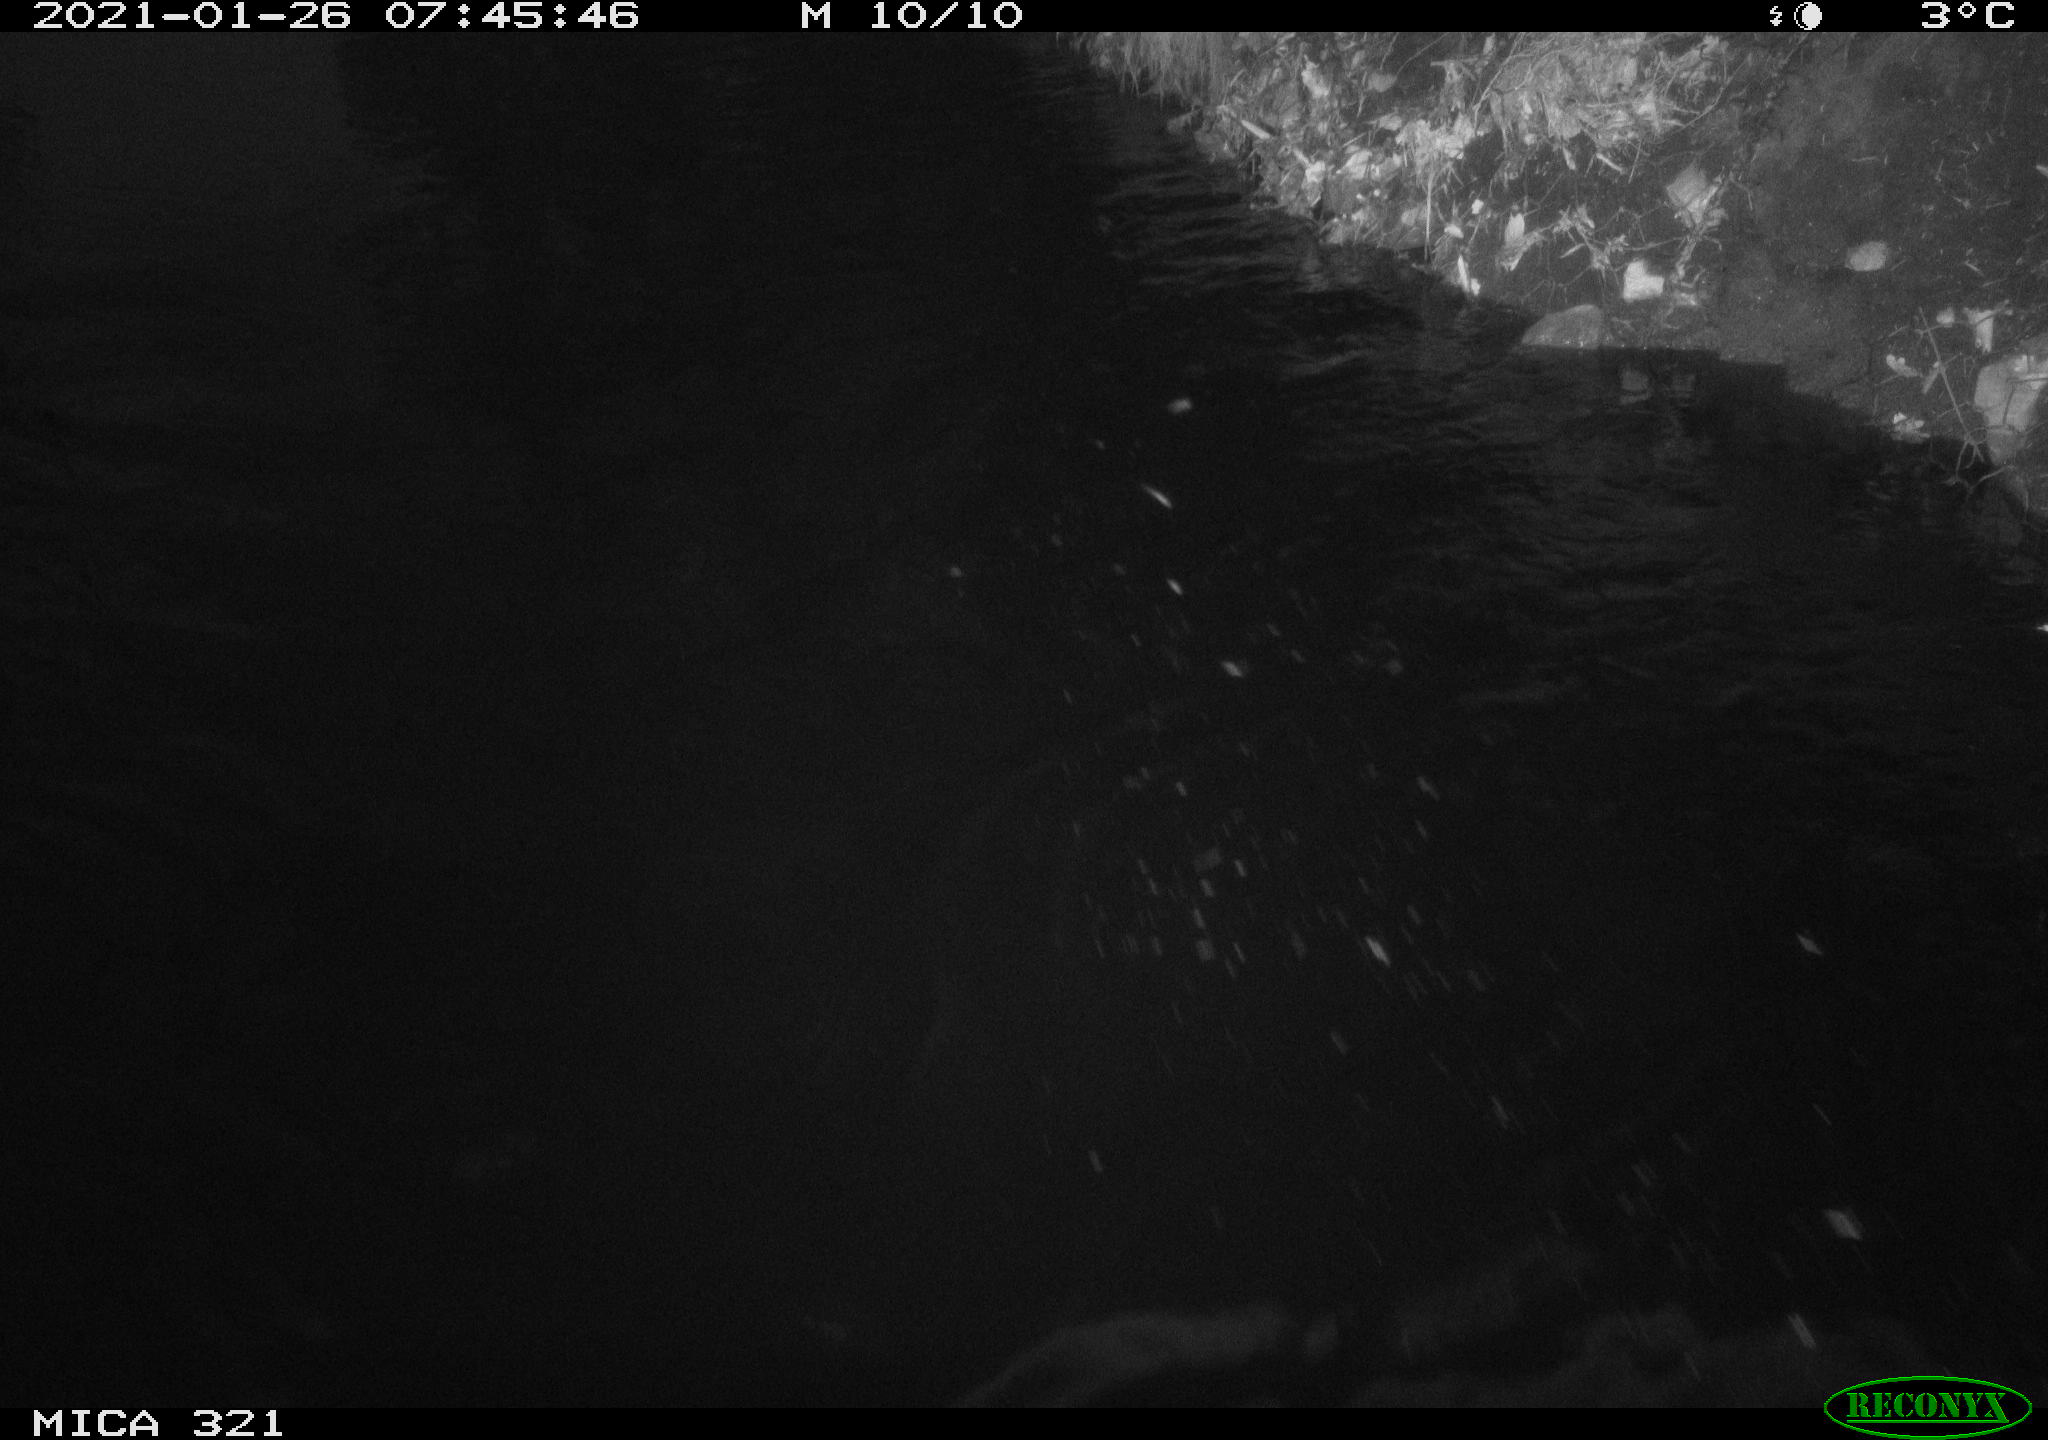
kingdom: Animalia
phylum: Chordata
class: Aves
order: Anseriformes
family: Anatidae
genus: Anas
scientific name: Anas platyrhynchos
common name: Mallard
